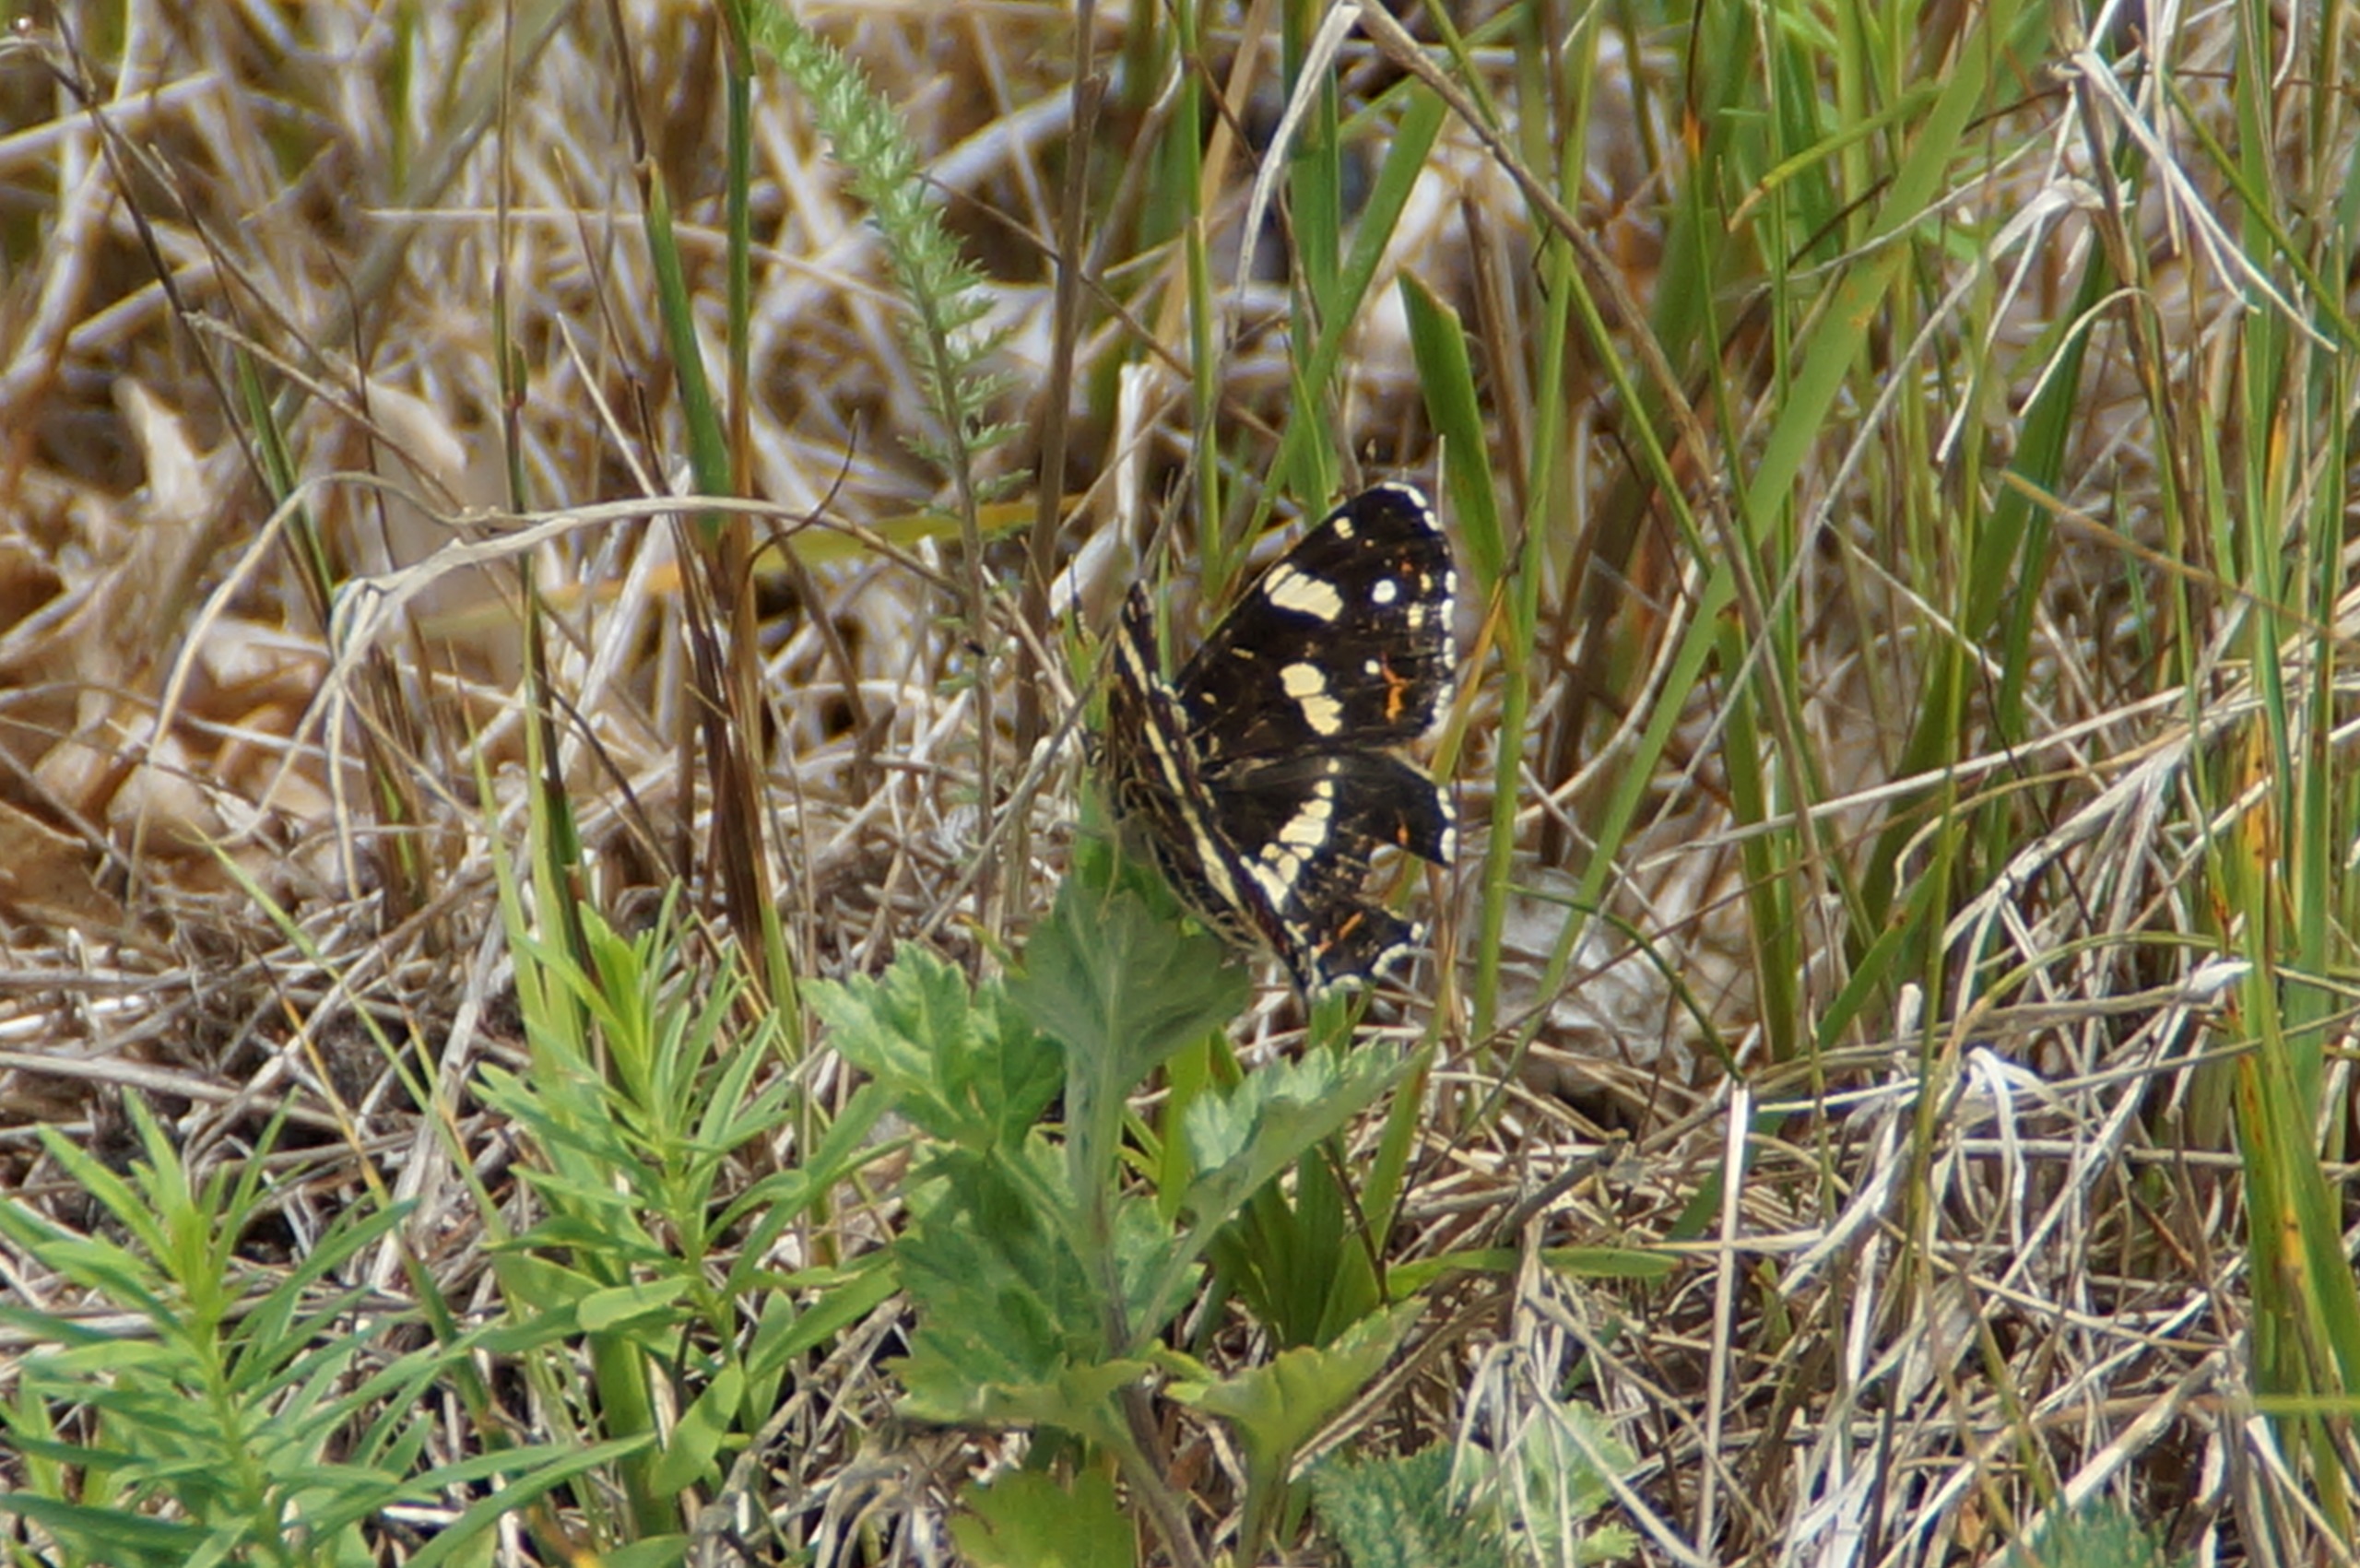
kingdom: Animalia
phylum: Arthropoda
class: Insecta
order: Lepidoptera
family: Nymphalidae
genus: Araschnia
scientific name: Araschnia levana
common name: Nældesommerfugl
